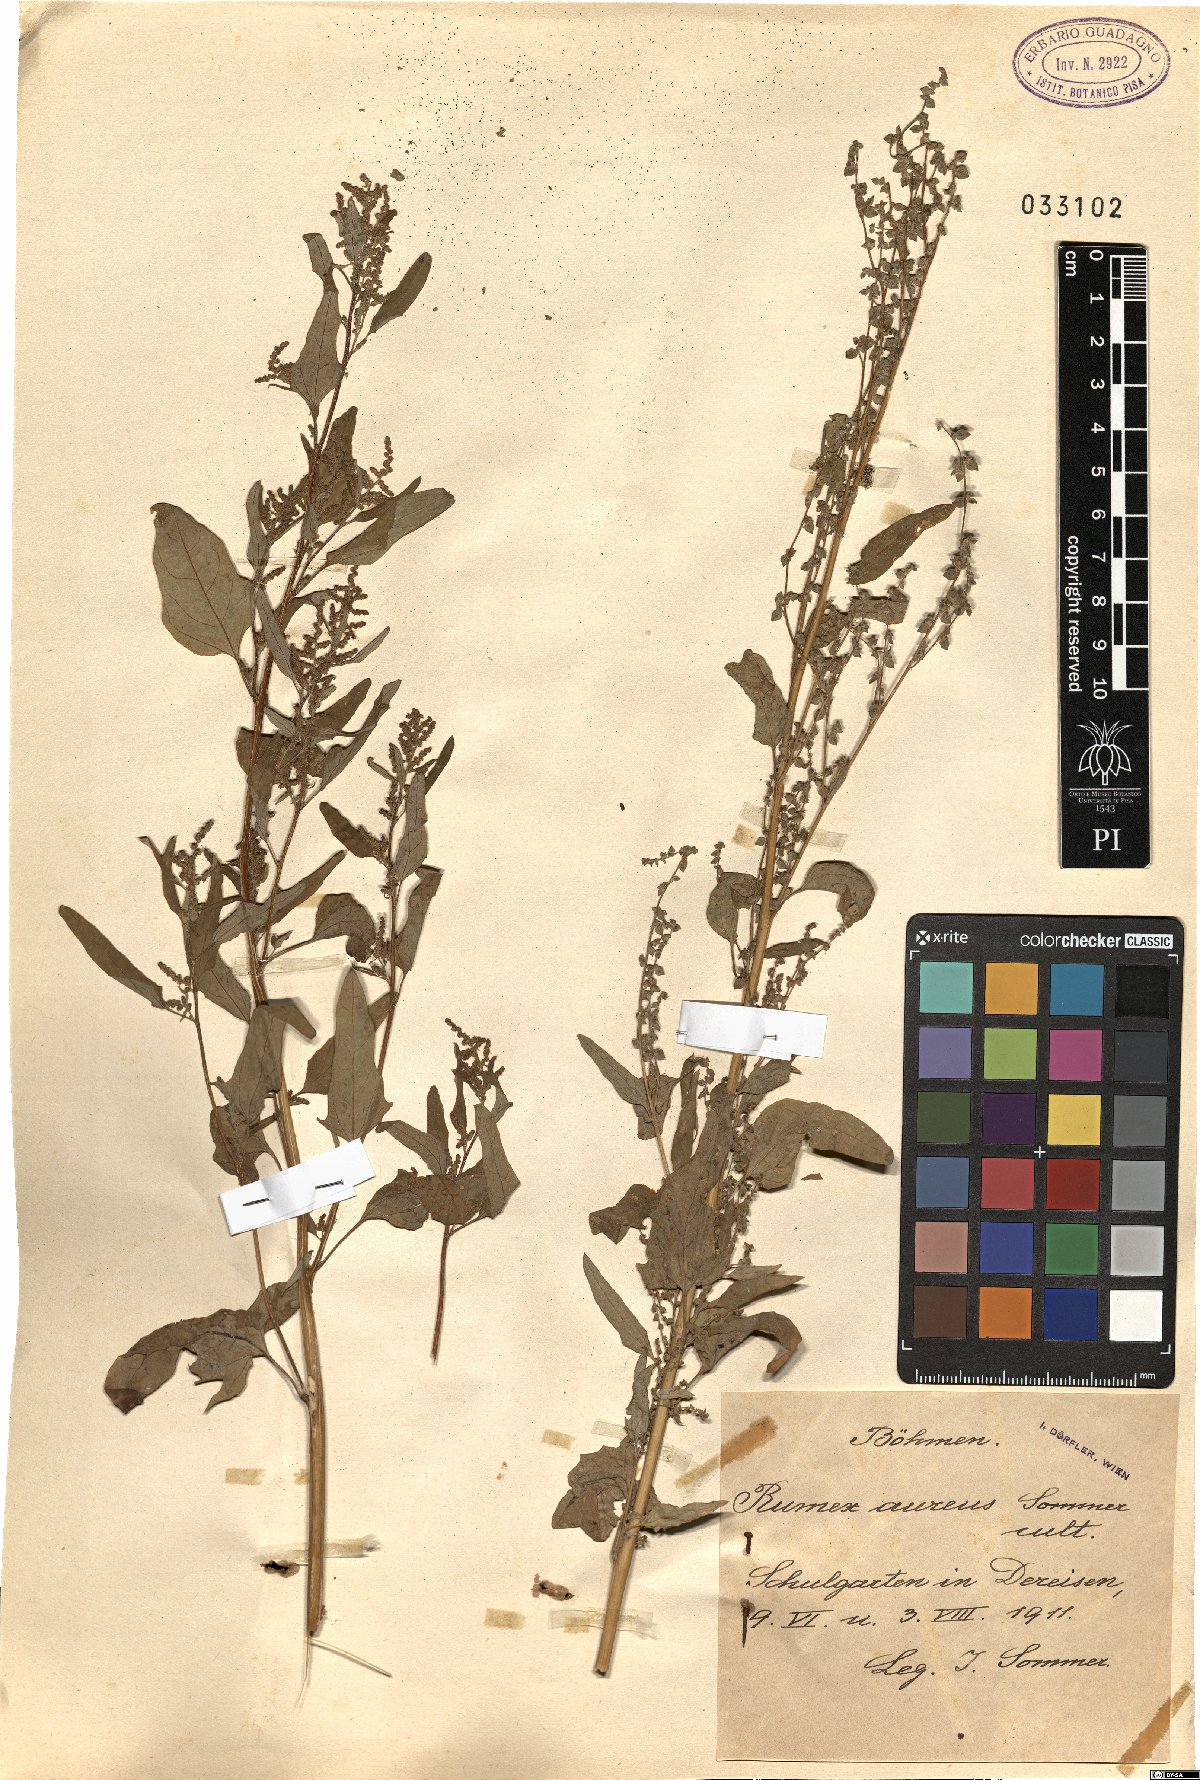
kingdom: Plantae
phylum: Tracheophyta
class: Magnoliopsida
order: Caryophyllales
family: Polygonaceae
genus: Rumex
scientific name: Rumex
